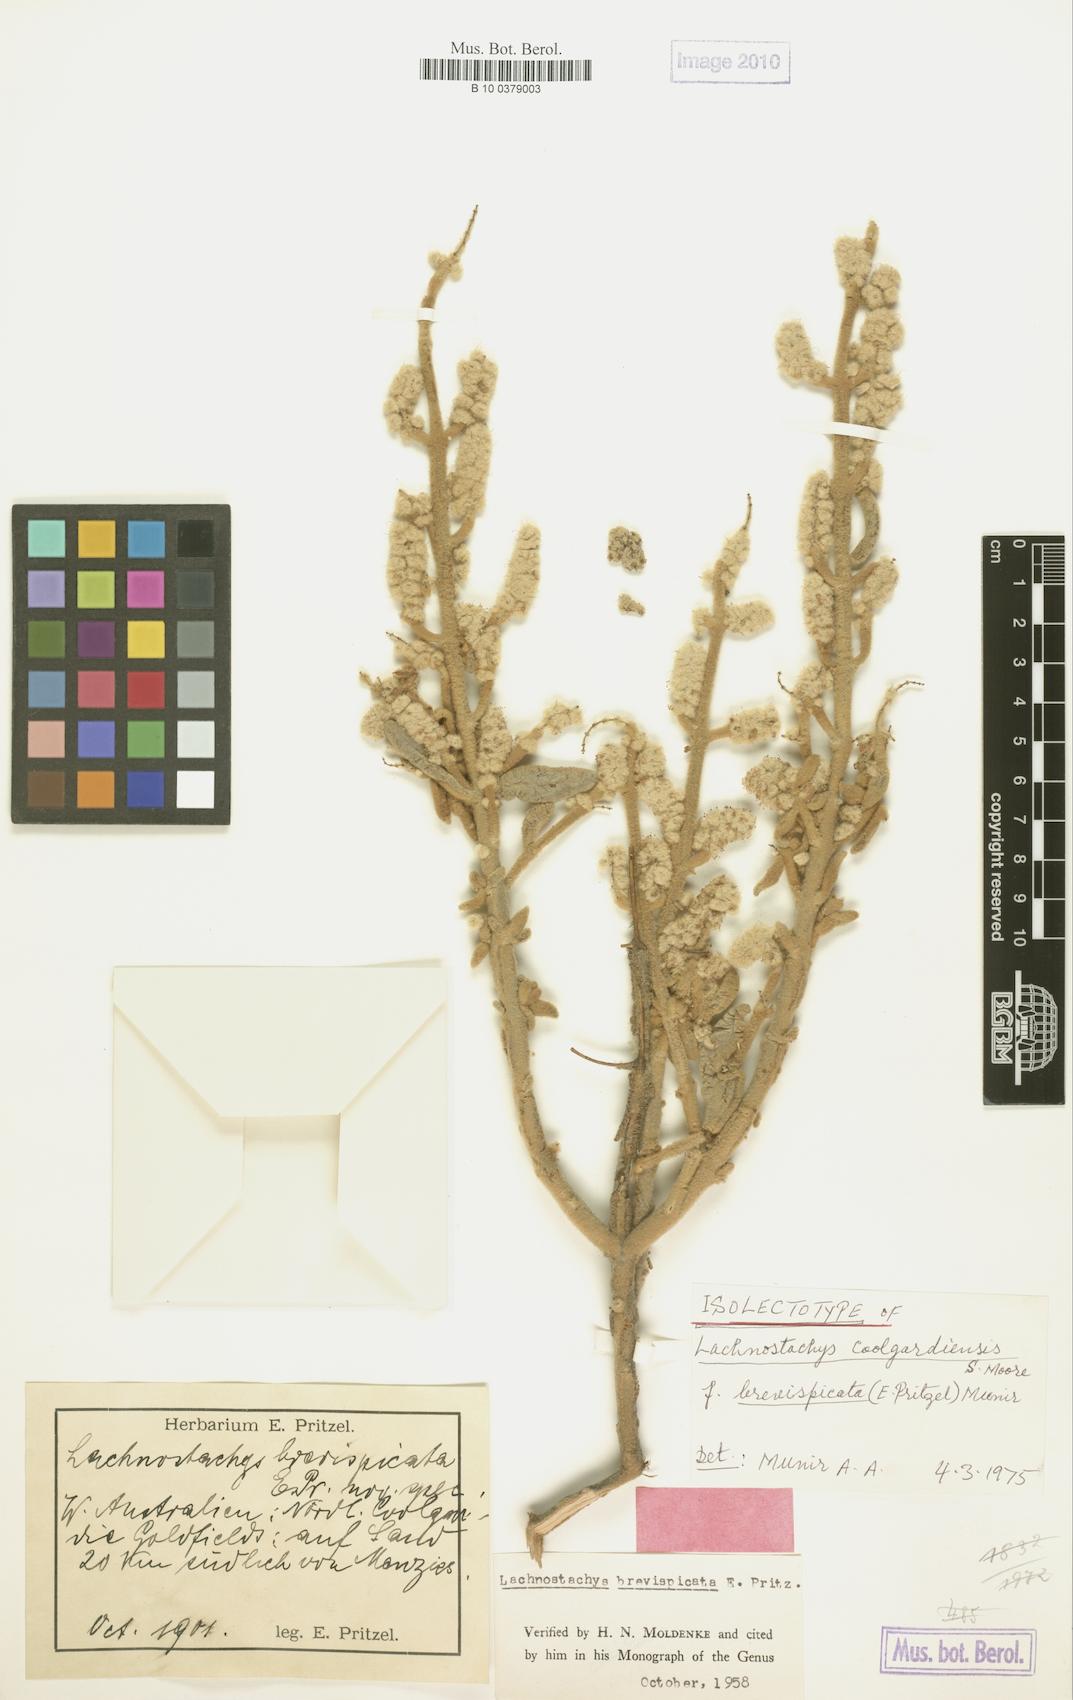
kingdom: Plantae
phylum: Tracheophyta
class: Magnoliopsida
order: Lamiales
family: Lamiaceae
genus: Lachnostachys
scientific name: Lachnostachys coolgardiensis
